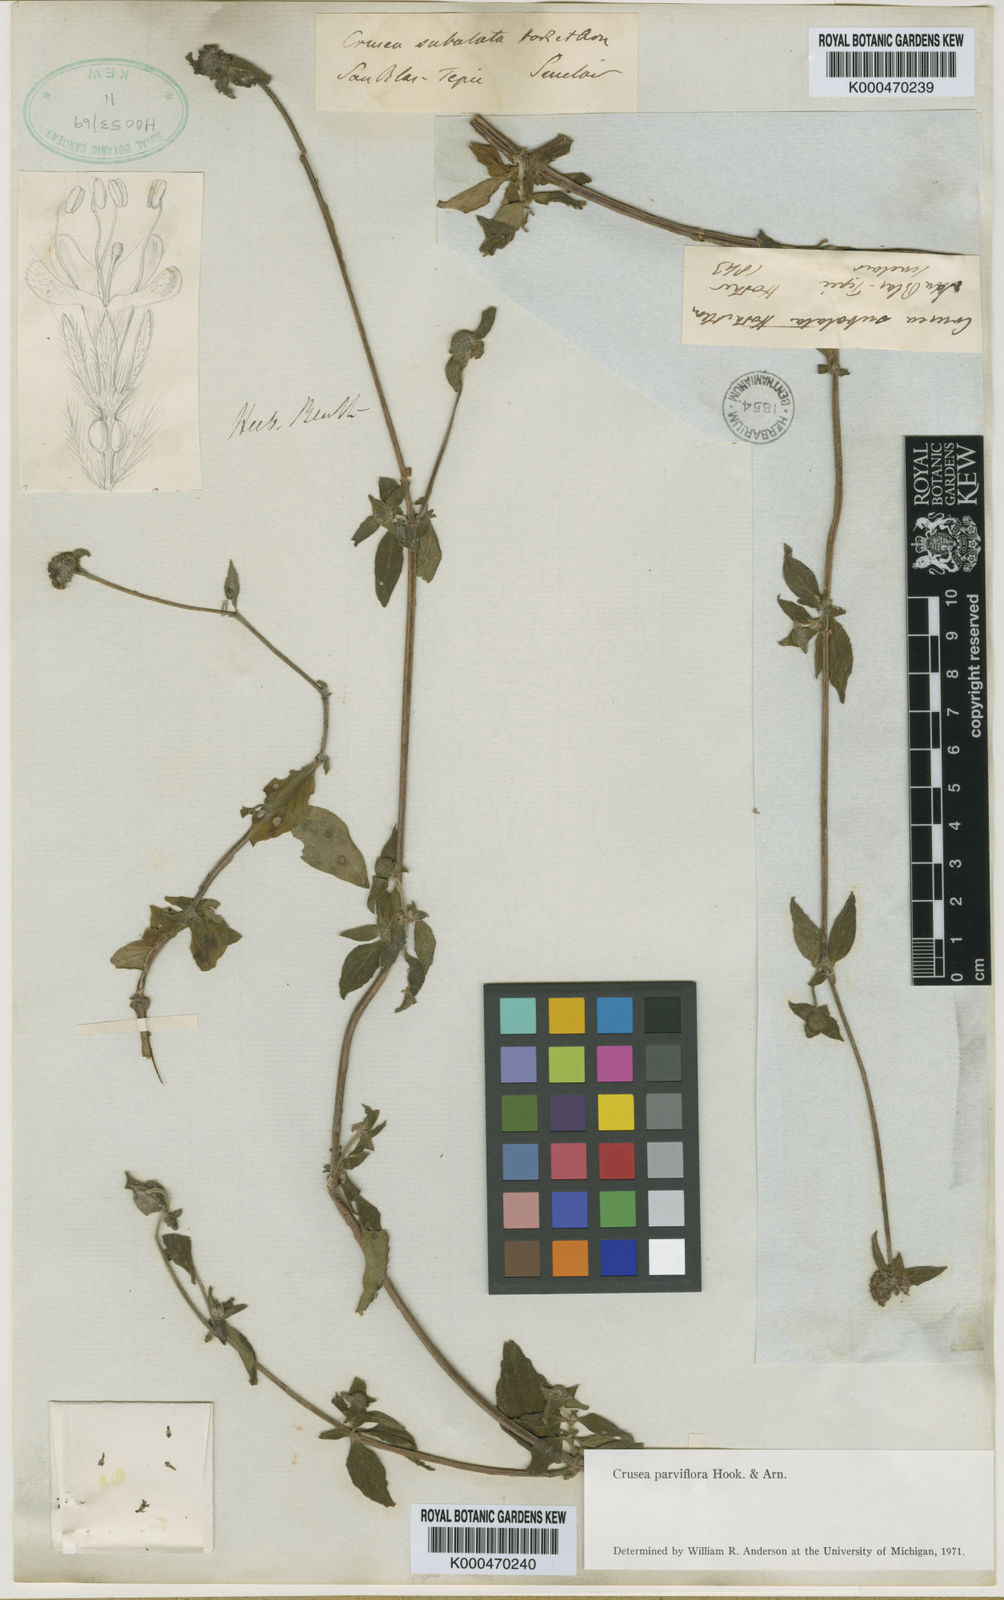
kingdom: Plantae
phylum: Tracheophyta
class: Magnoliopsida
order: Gentianales
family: Rubiaceae
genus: Crusea
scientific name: Crusea parviflora
